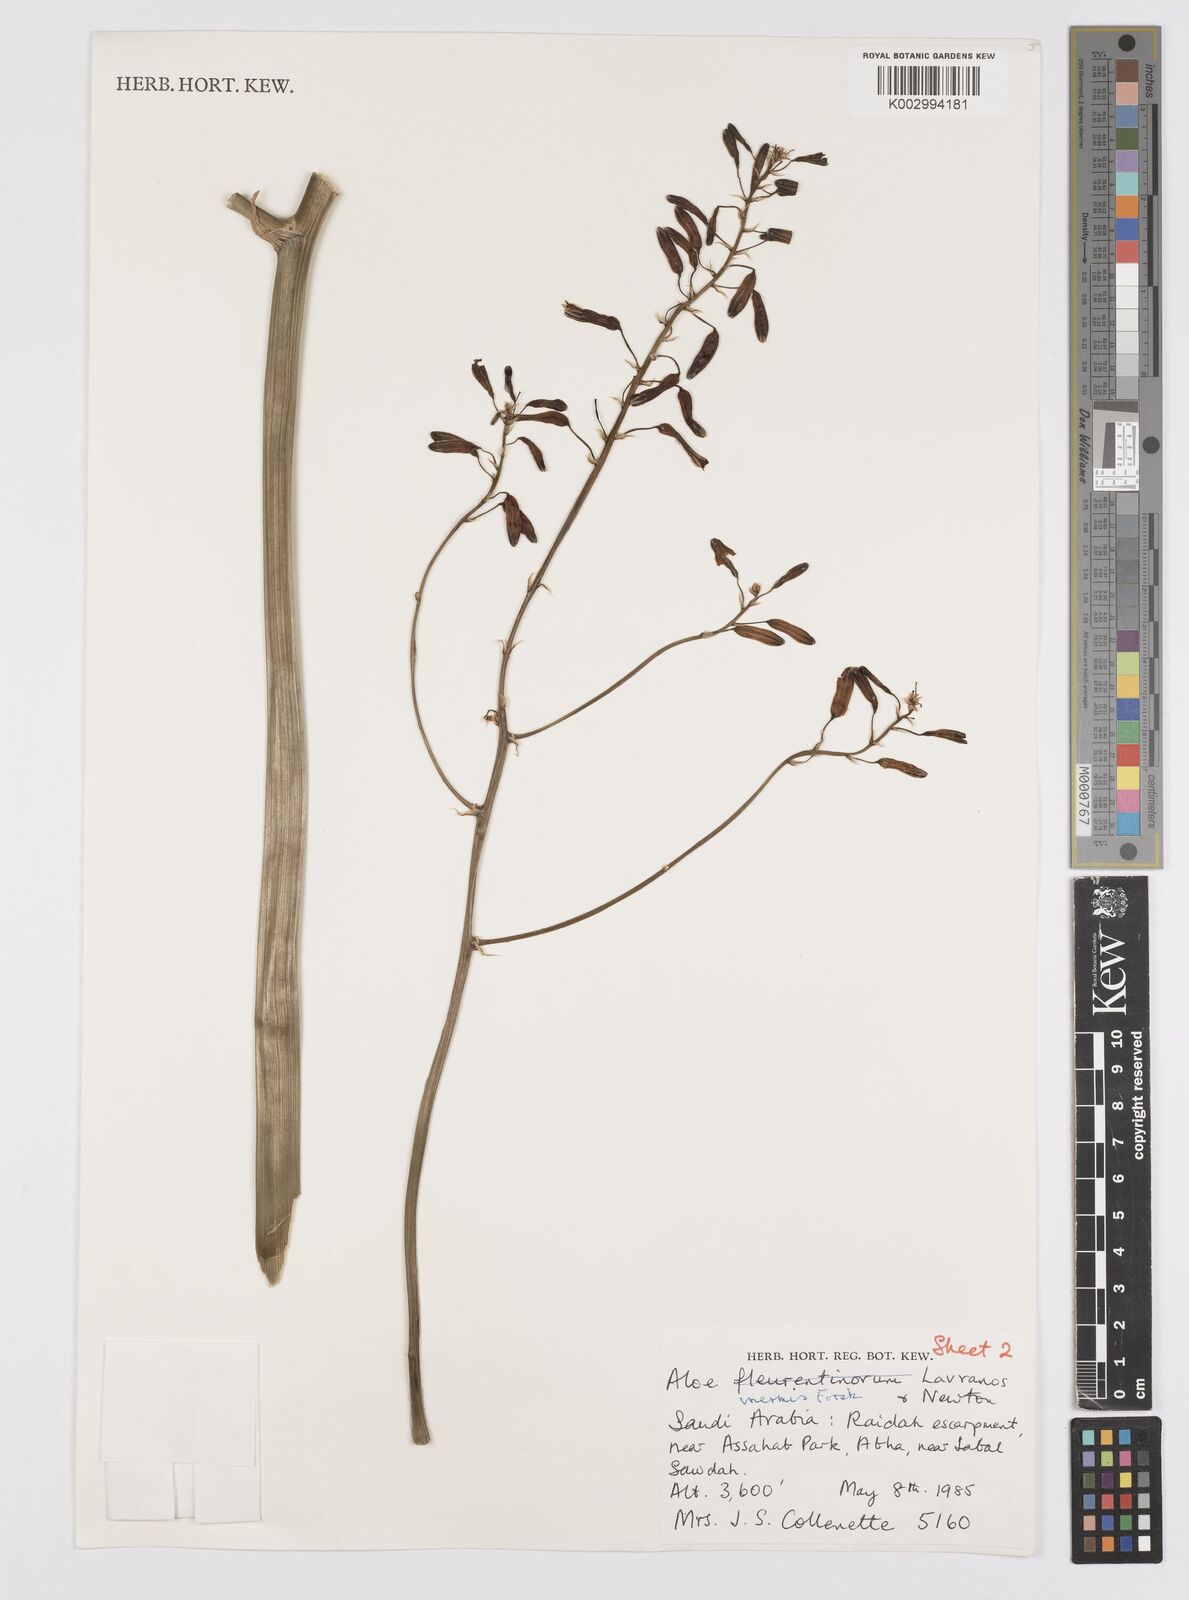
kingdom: Plantae
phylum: Tracheophyta
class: Liliopsida
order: Asparagales
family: Asphodelaceae
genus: Aloe
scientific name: Aloe fleurentiniorum
